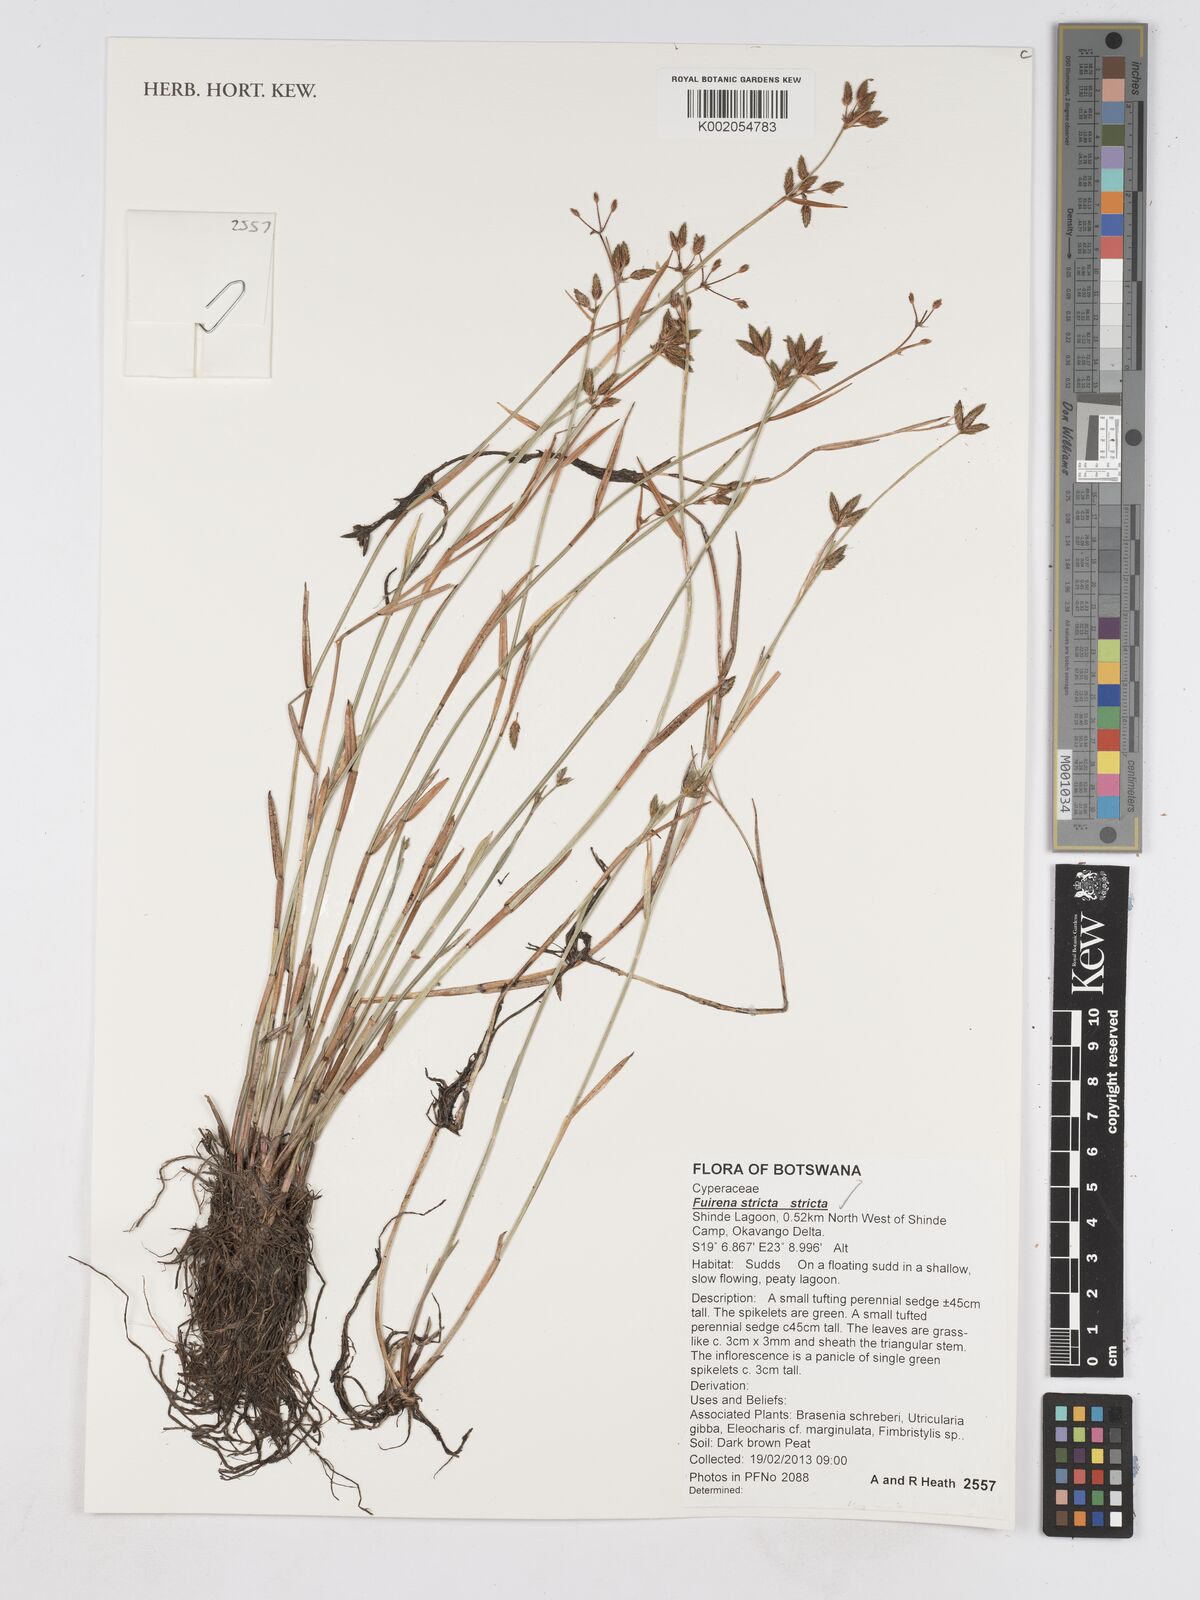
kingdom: Plantae
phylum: Tracheophyta
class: Liliopsida
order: Poales
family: Cyperaceae
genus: Fuirena
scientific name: Fuirena stricta
